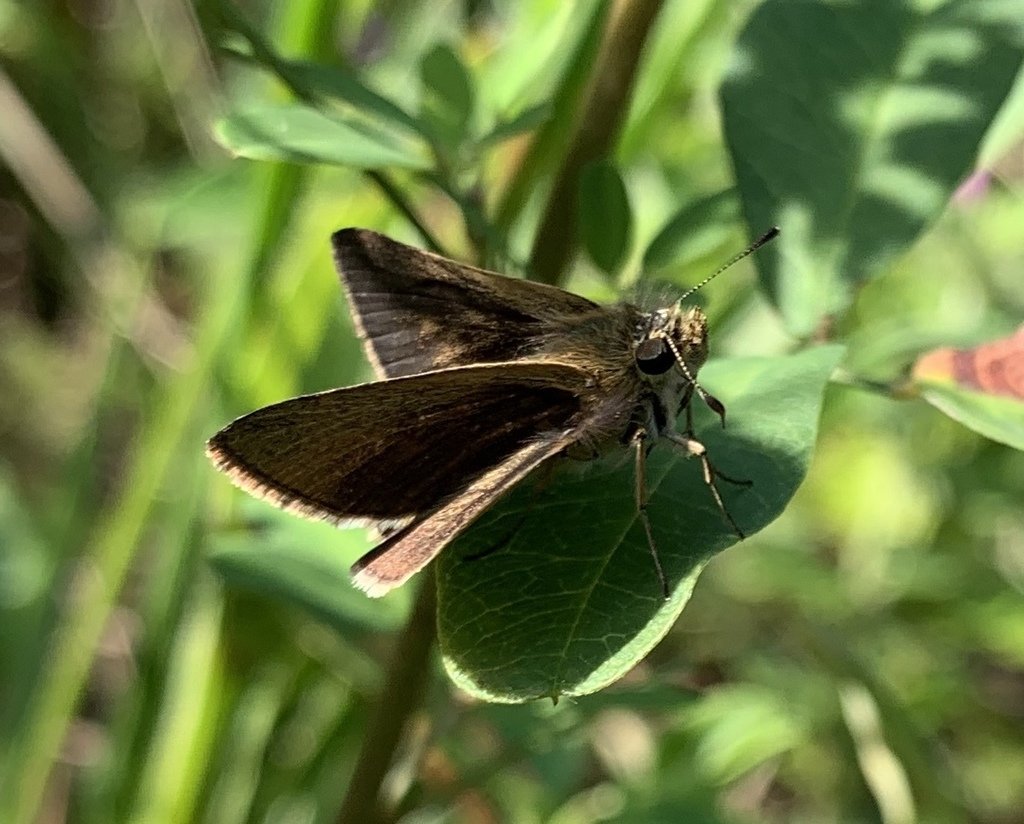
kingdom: Animalia
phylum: Arthropoda
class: Insecta
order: Lepidoptera
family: Hesperiidae
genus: Nastra
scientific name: Nastra lherminier
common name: Swarthy Skipper
